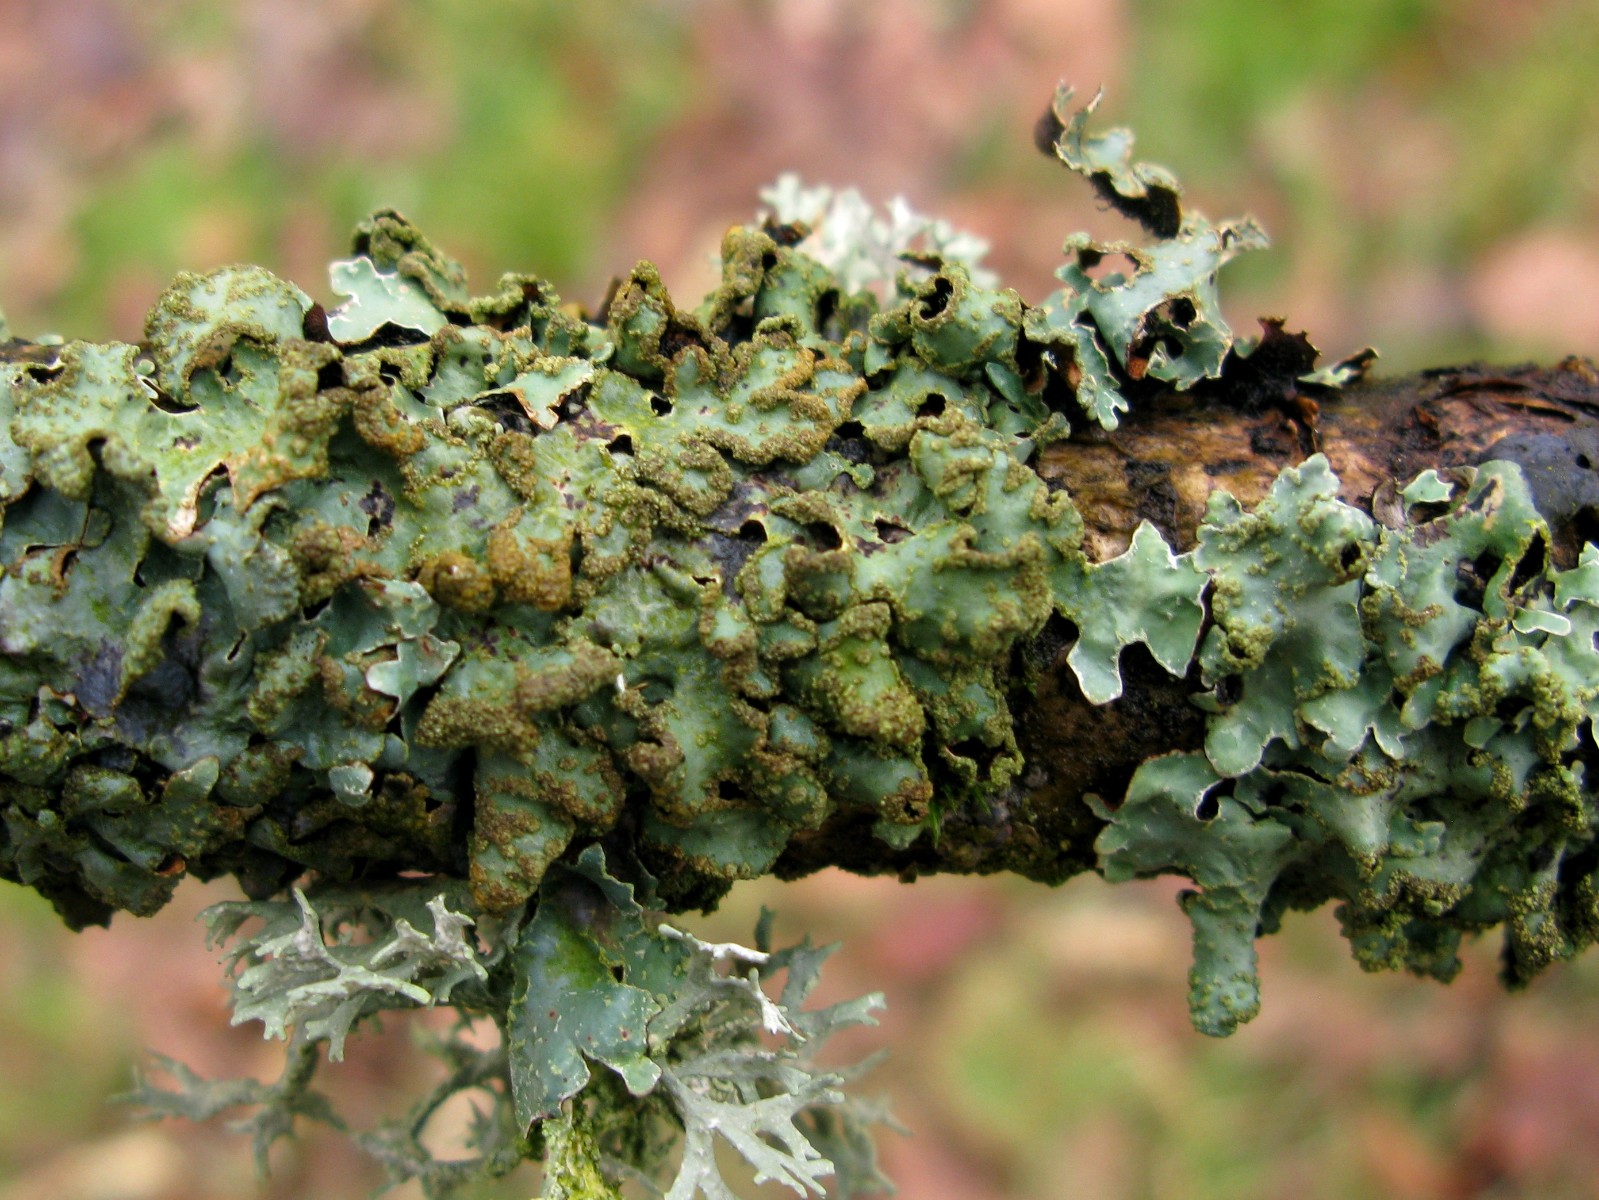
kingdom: Fungi
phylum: Ascomycota
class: Lecanoromycetes
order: Lecanorales
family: Parmeliaceae
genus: Parmelia
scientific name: Parmelia sulcata
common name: rynket skållav
